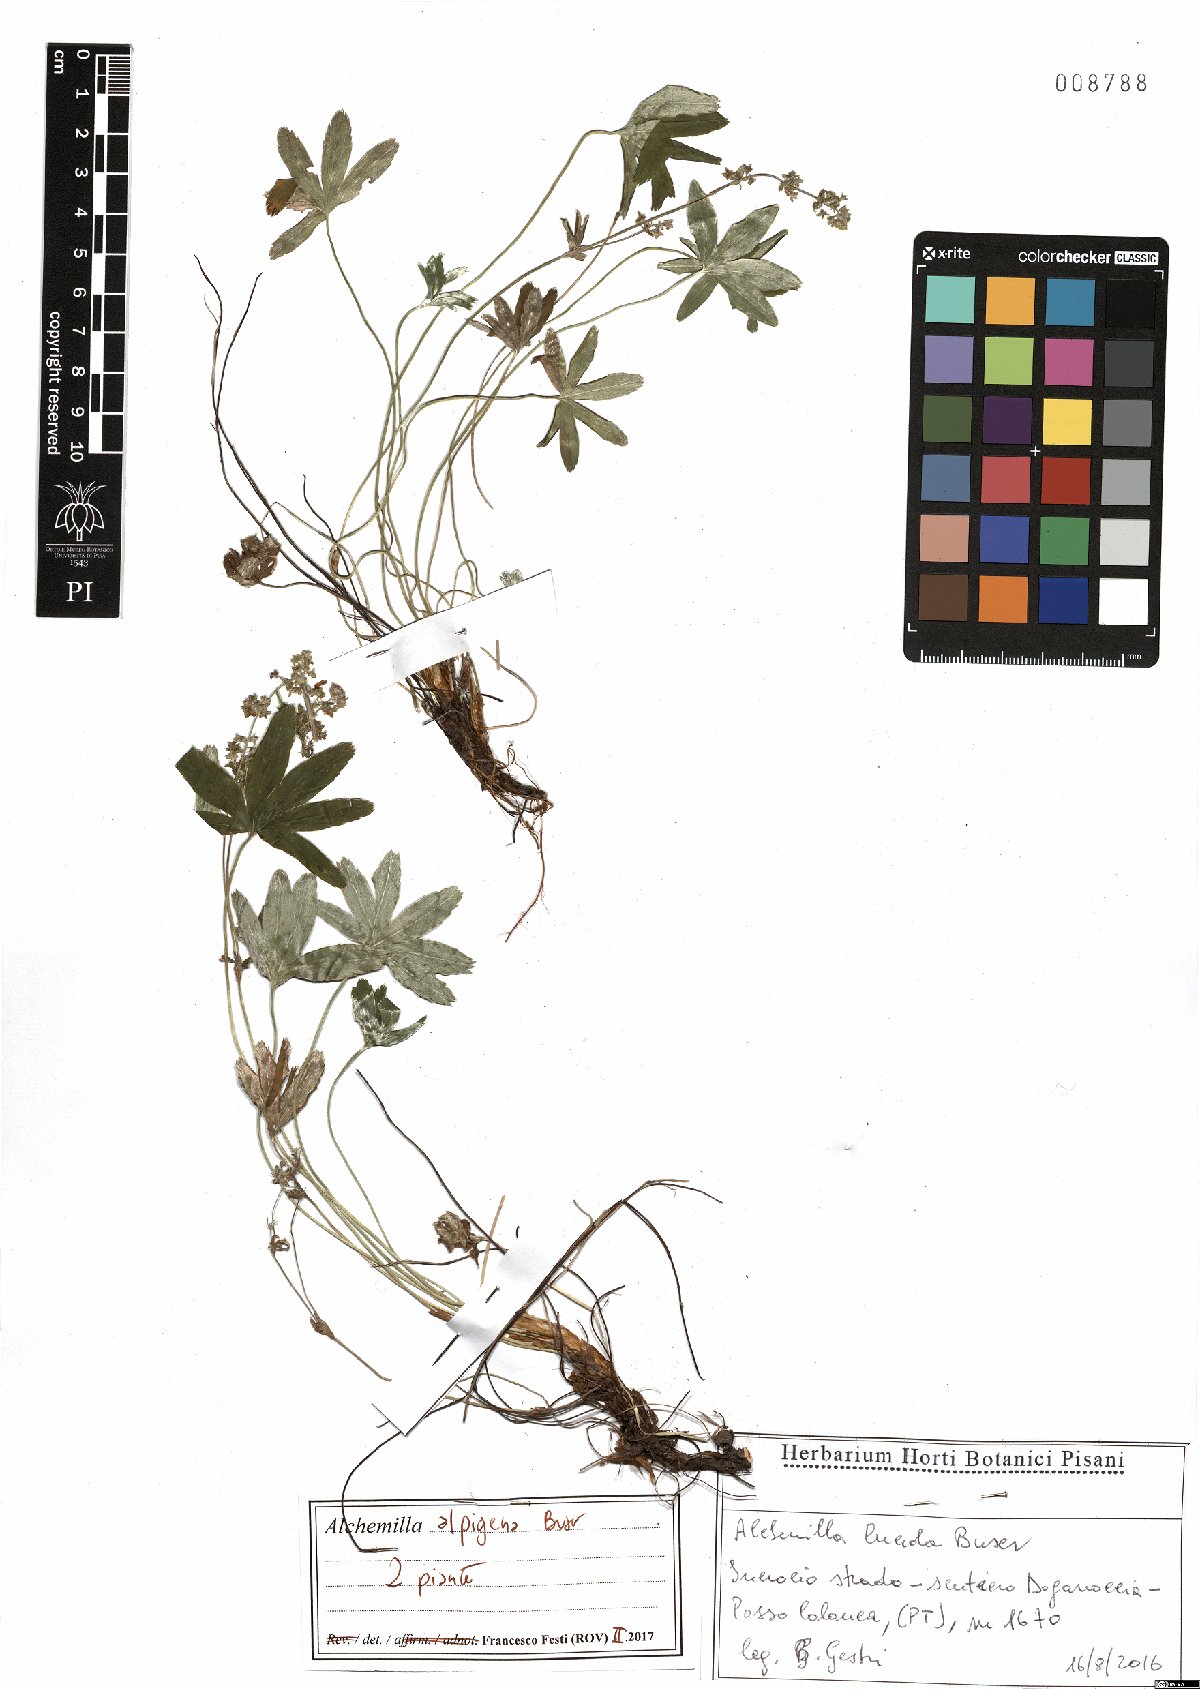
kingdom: Plantae
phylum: Tracheophyta
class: Magnoliopsida
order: Rosales
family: Rosaceae
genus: Alchemilla
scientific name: Alchemilla alpigena
